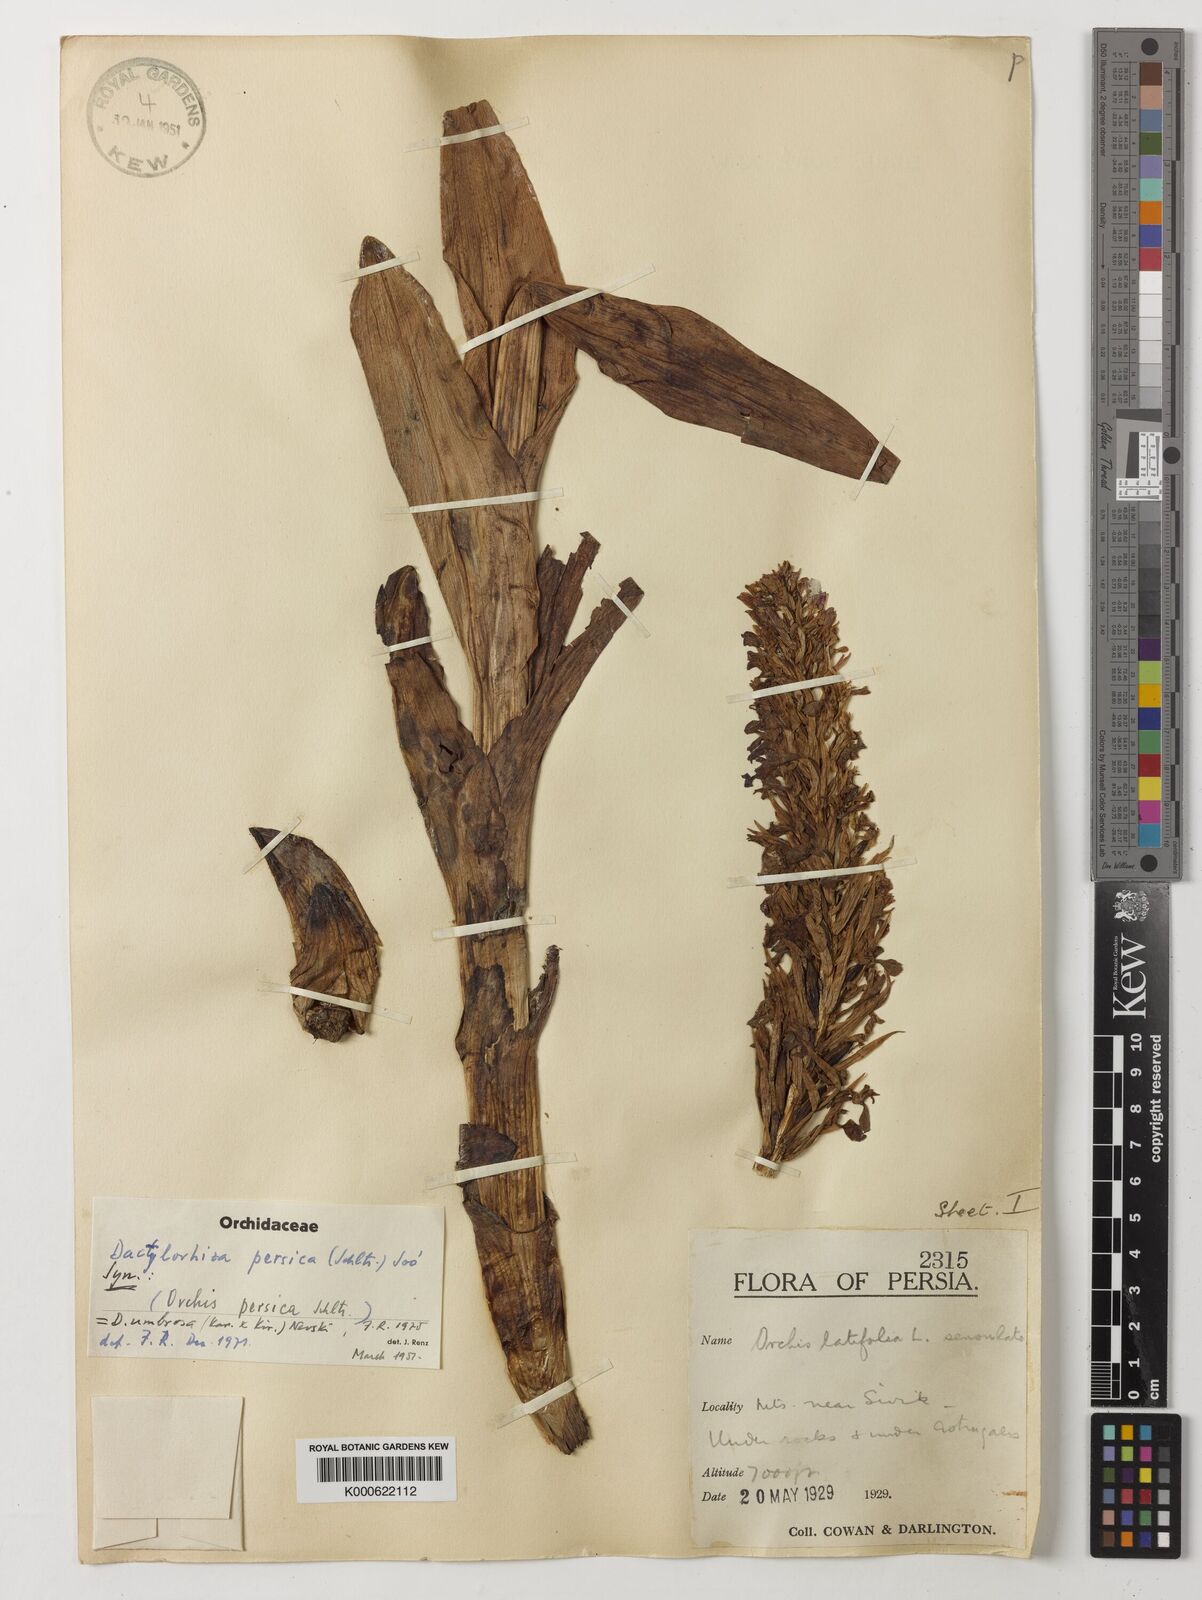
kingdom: Plantae
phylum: Tracheophyta
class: Liliopsida
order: Asparagales
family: Orchidaceae
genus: Dactylorhiza
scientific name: Dactylorhiza
